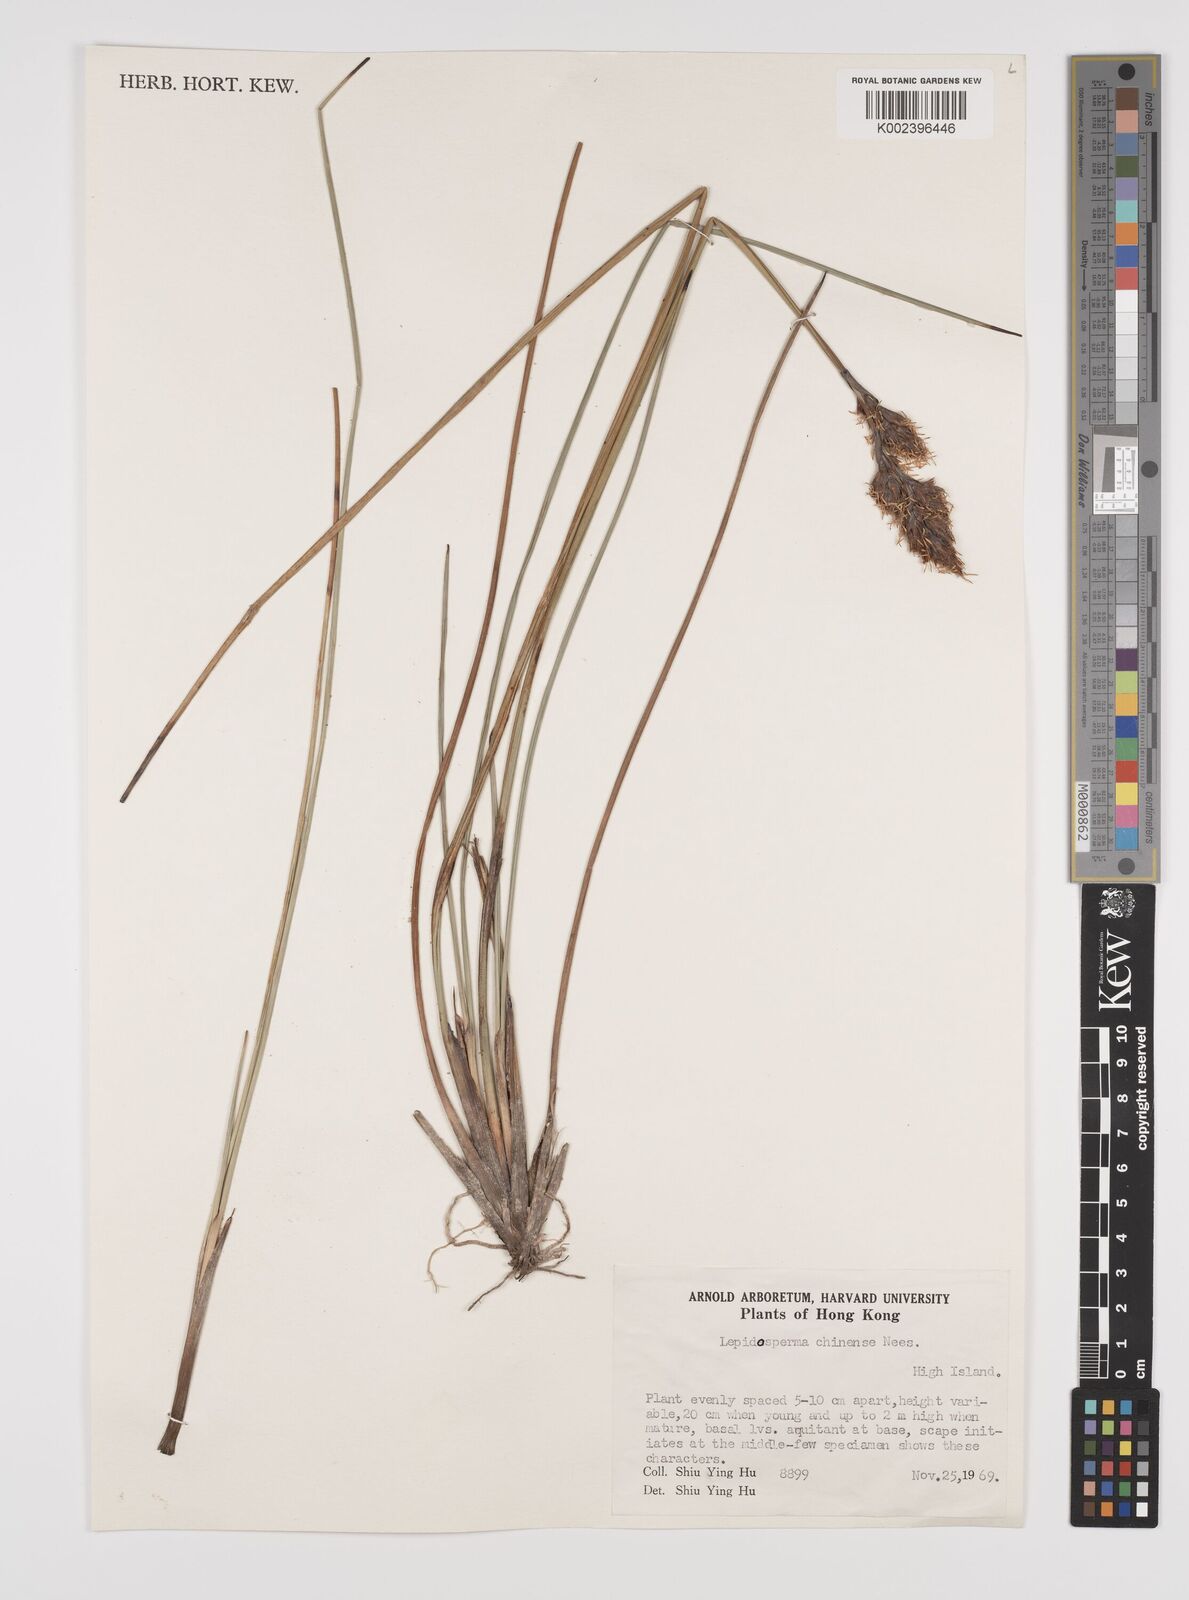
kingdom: Plantae
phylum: Tracheophyta
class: Liliopsida
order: Poales
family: Cyperaceae
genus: Lepidosperma
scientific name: Lepidosperma chinense
